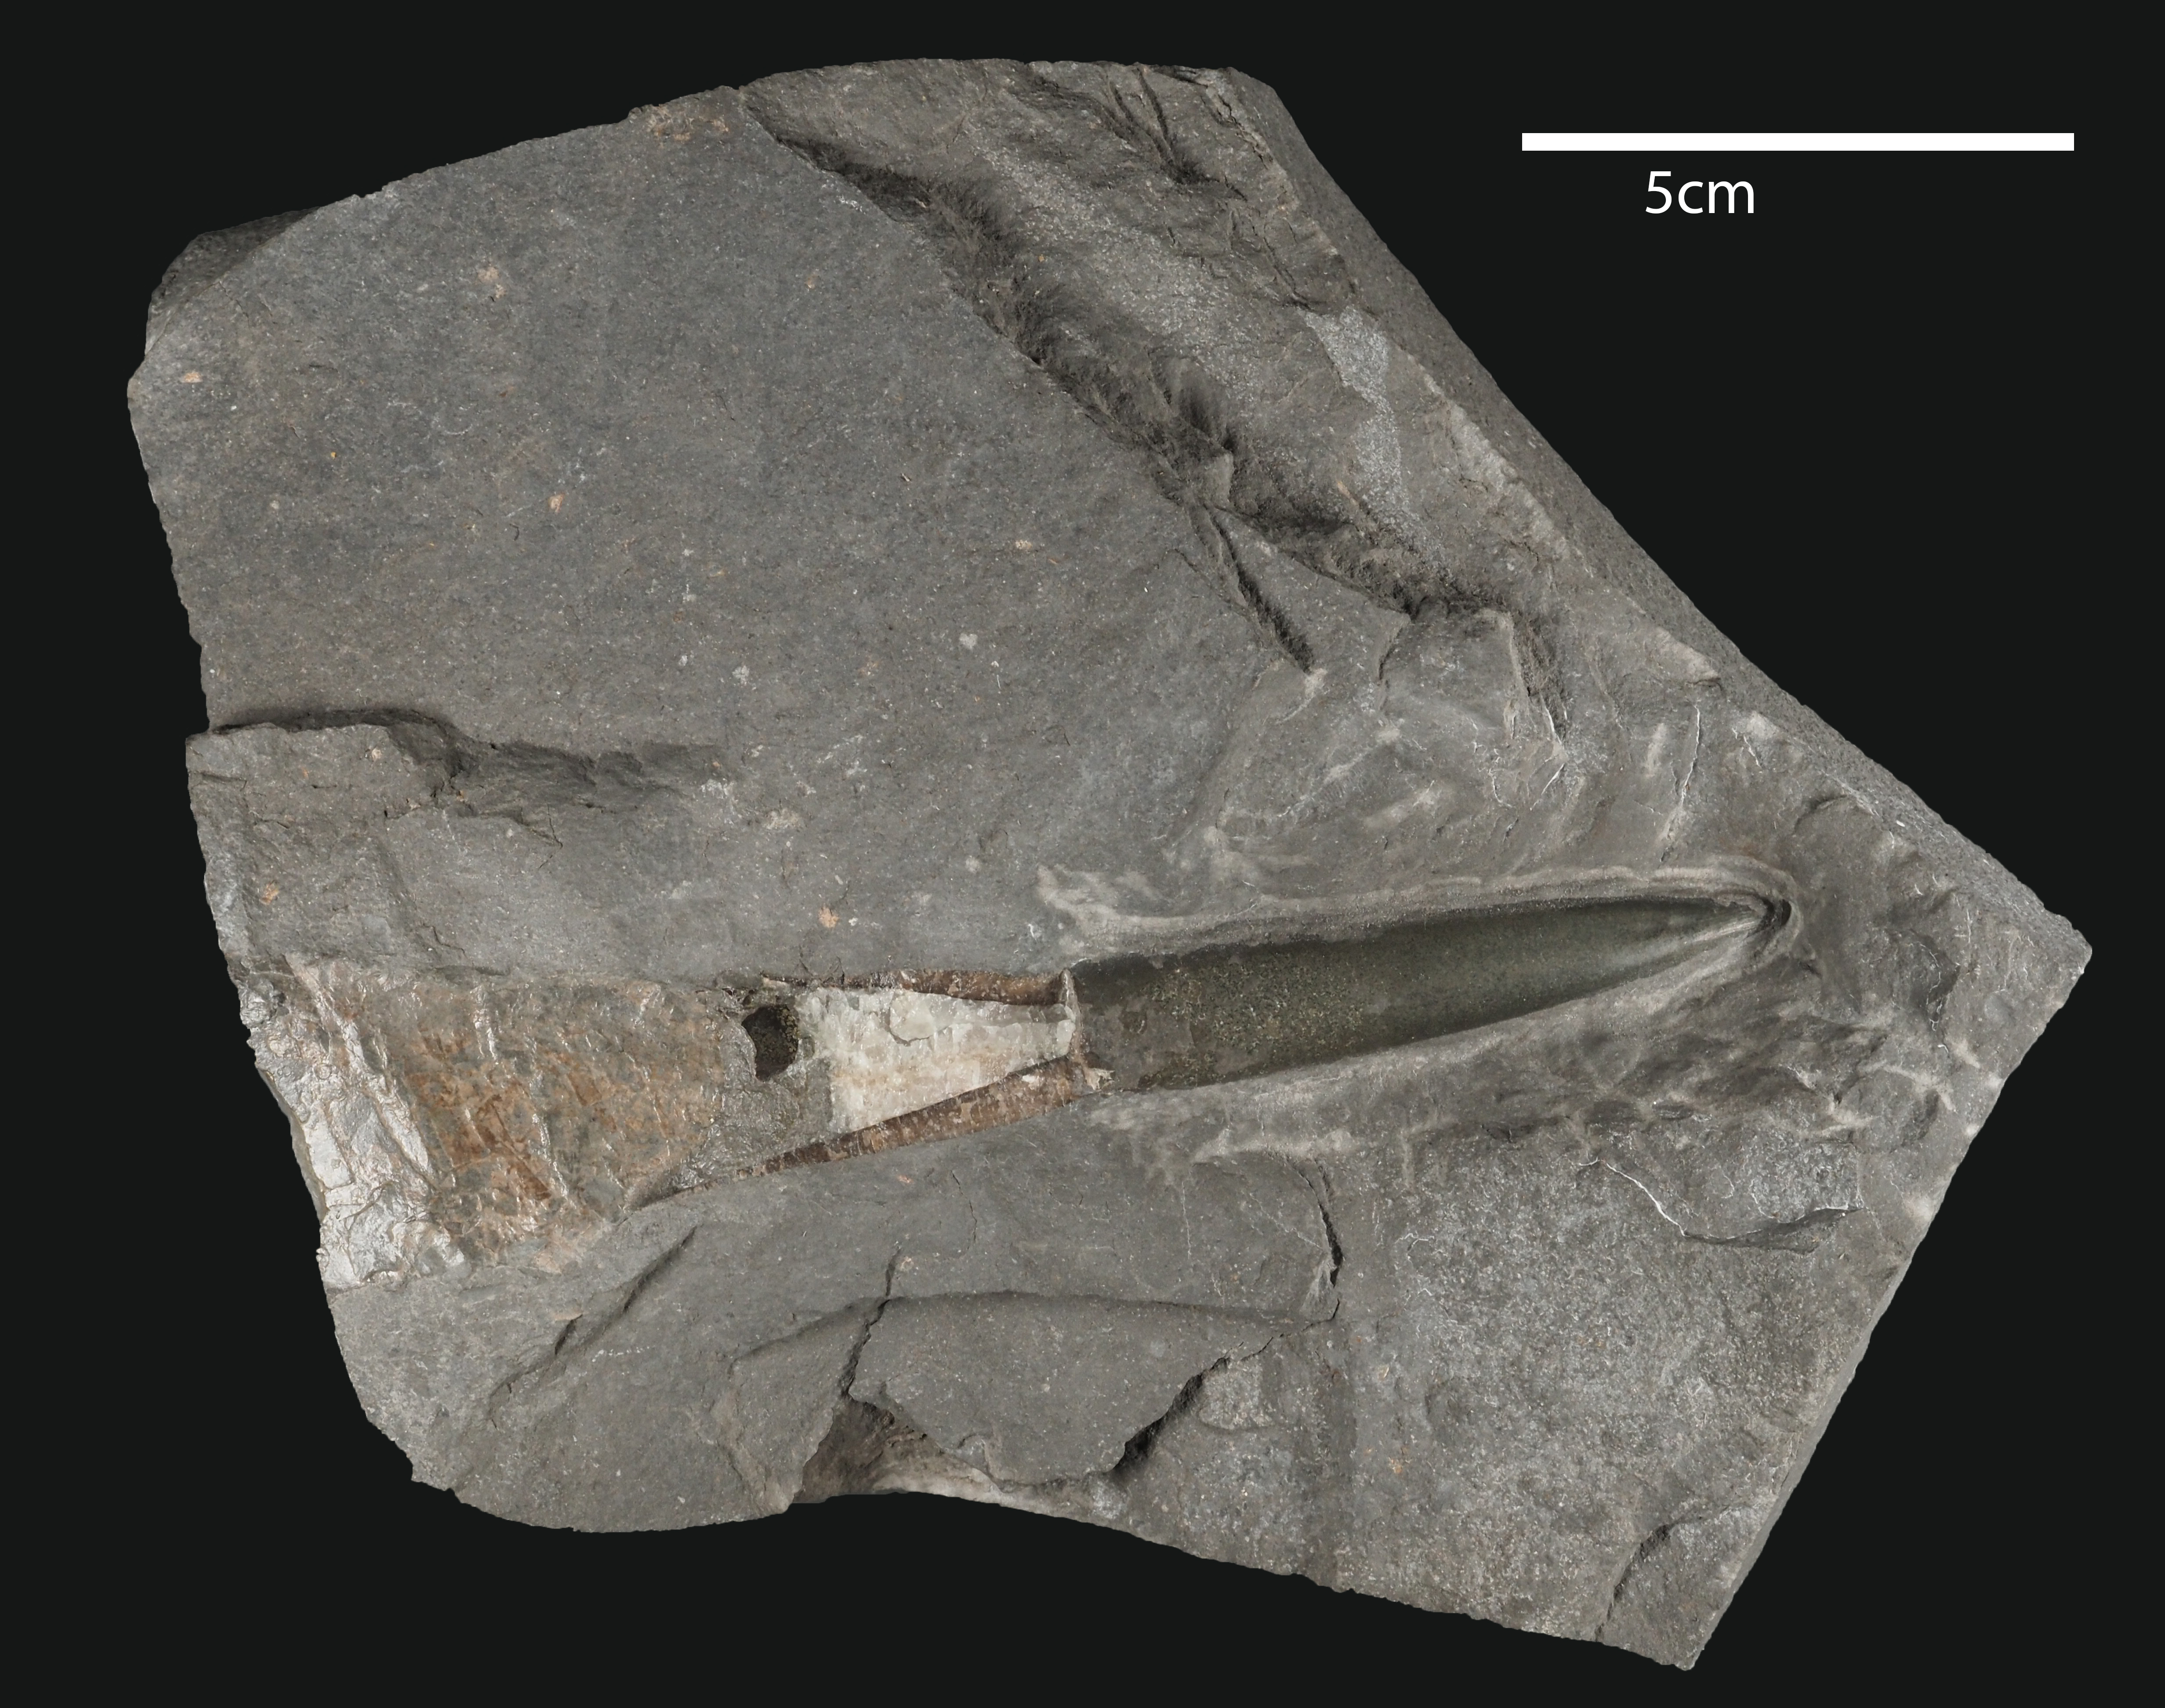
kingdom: Animalia
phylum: Mollusca
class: Cephalopoda
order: Belemnitida
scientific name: Belemnitida
